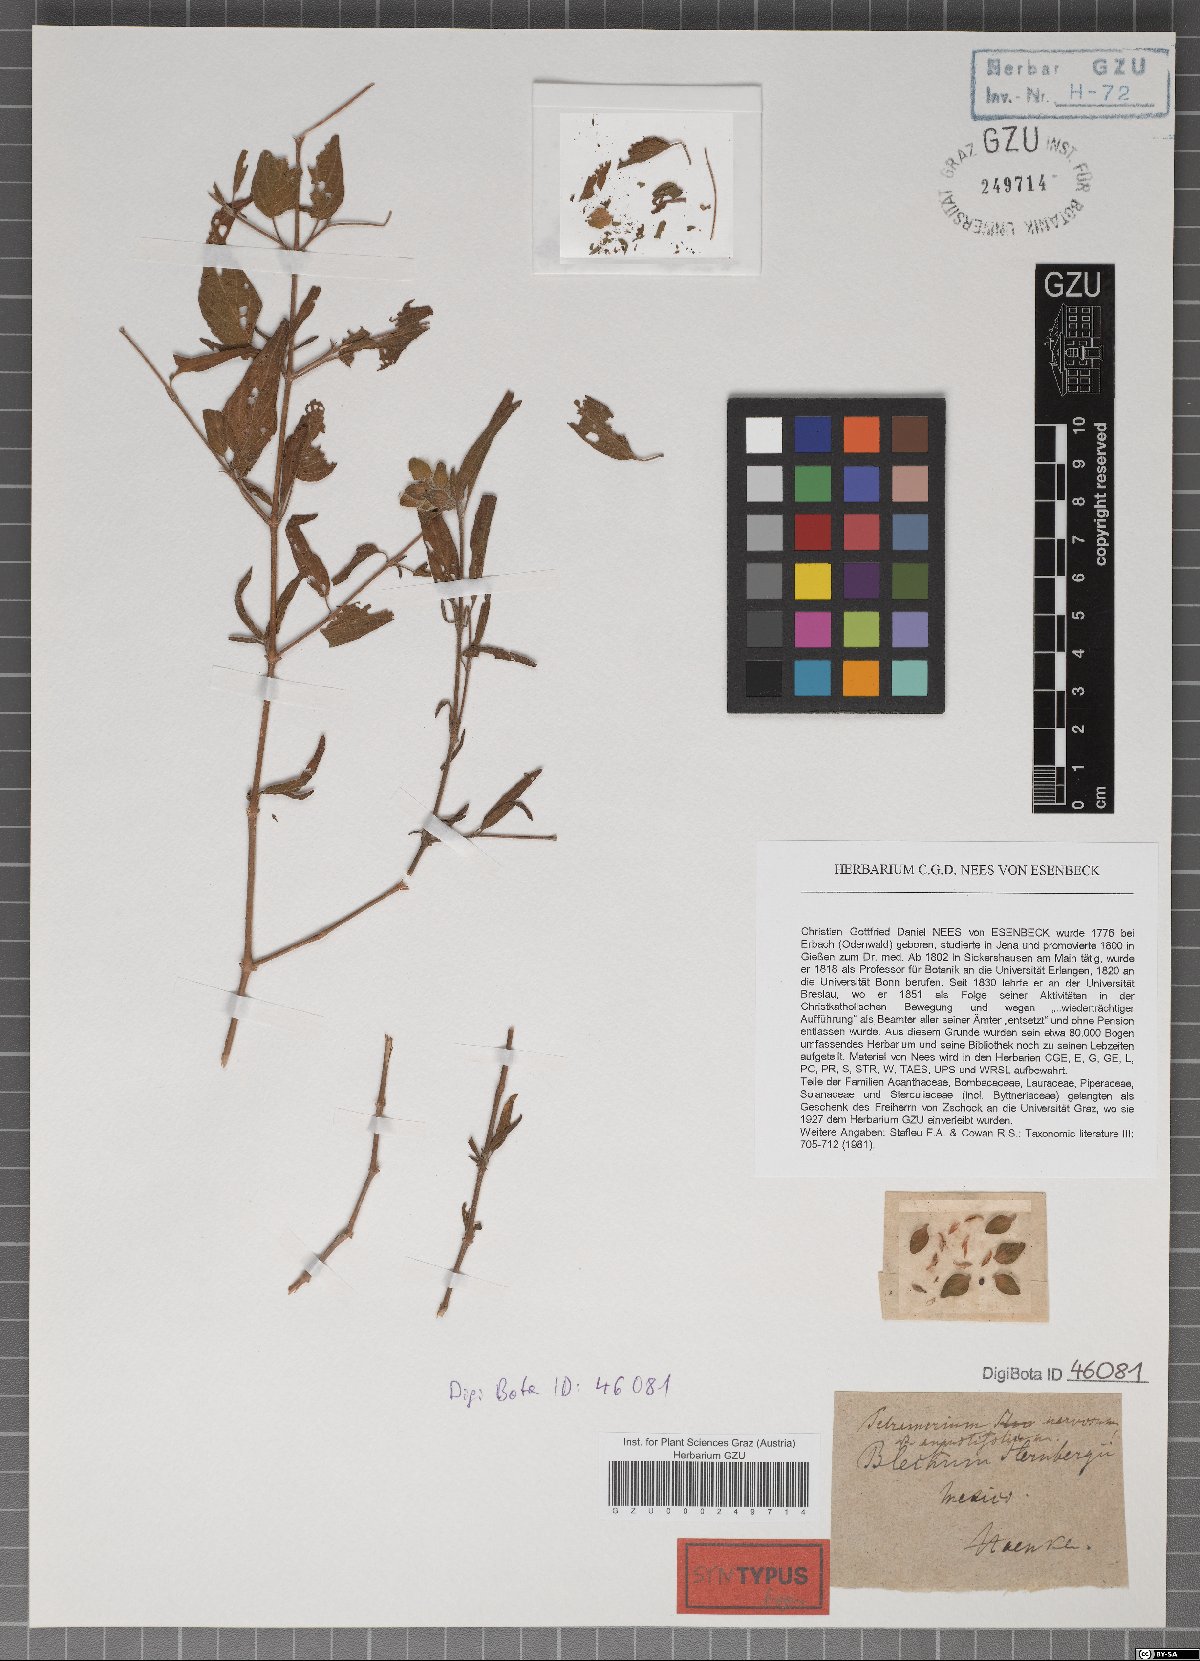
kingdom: Plantae
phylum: Tracheophyta
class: Magnoliopsida
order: Lamiales
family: Acanthaceae
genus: Tetramerium
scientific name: Tetramerium nervosum
